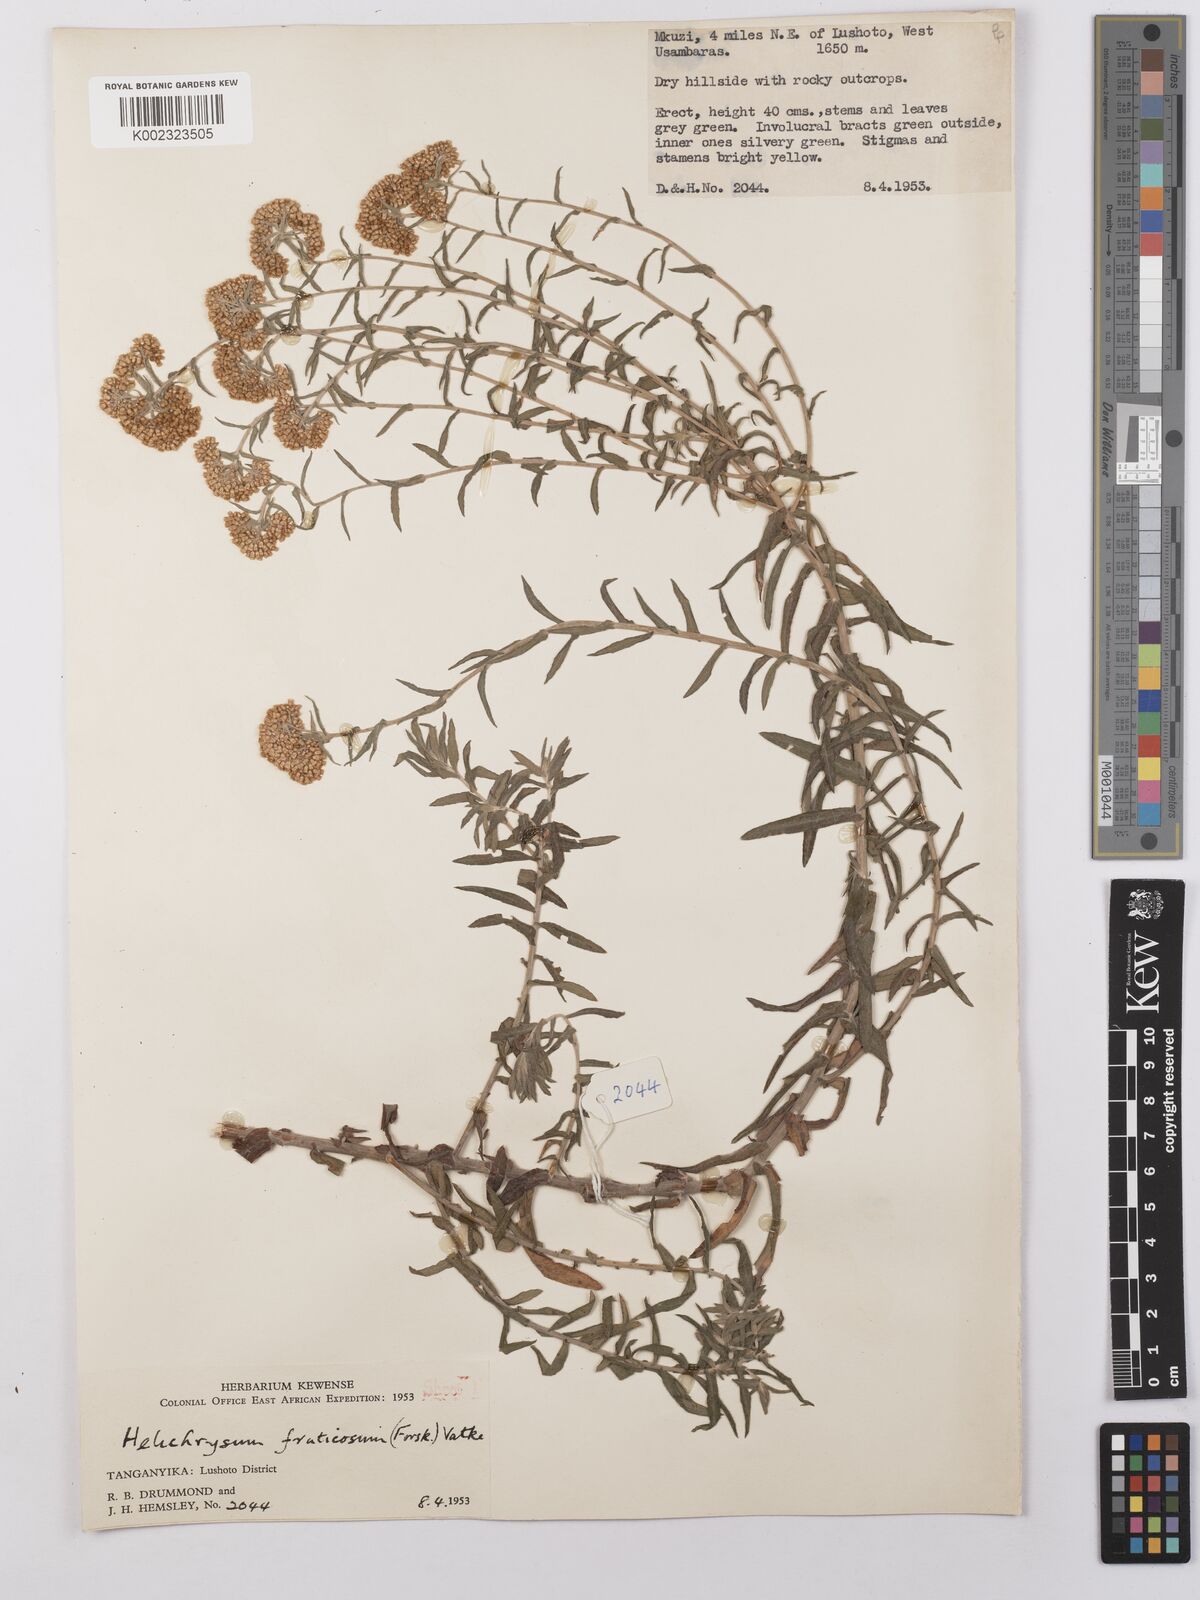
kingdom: Plantae
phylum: Tracheophyta
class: Magnoliopsida
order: Asterales
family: Asteraceae
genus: Helichrysum
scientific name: Helichrysum forskahlii
